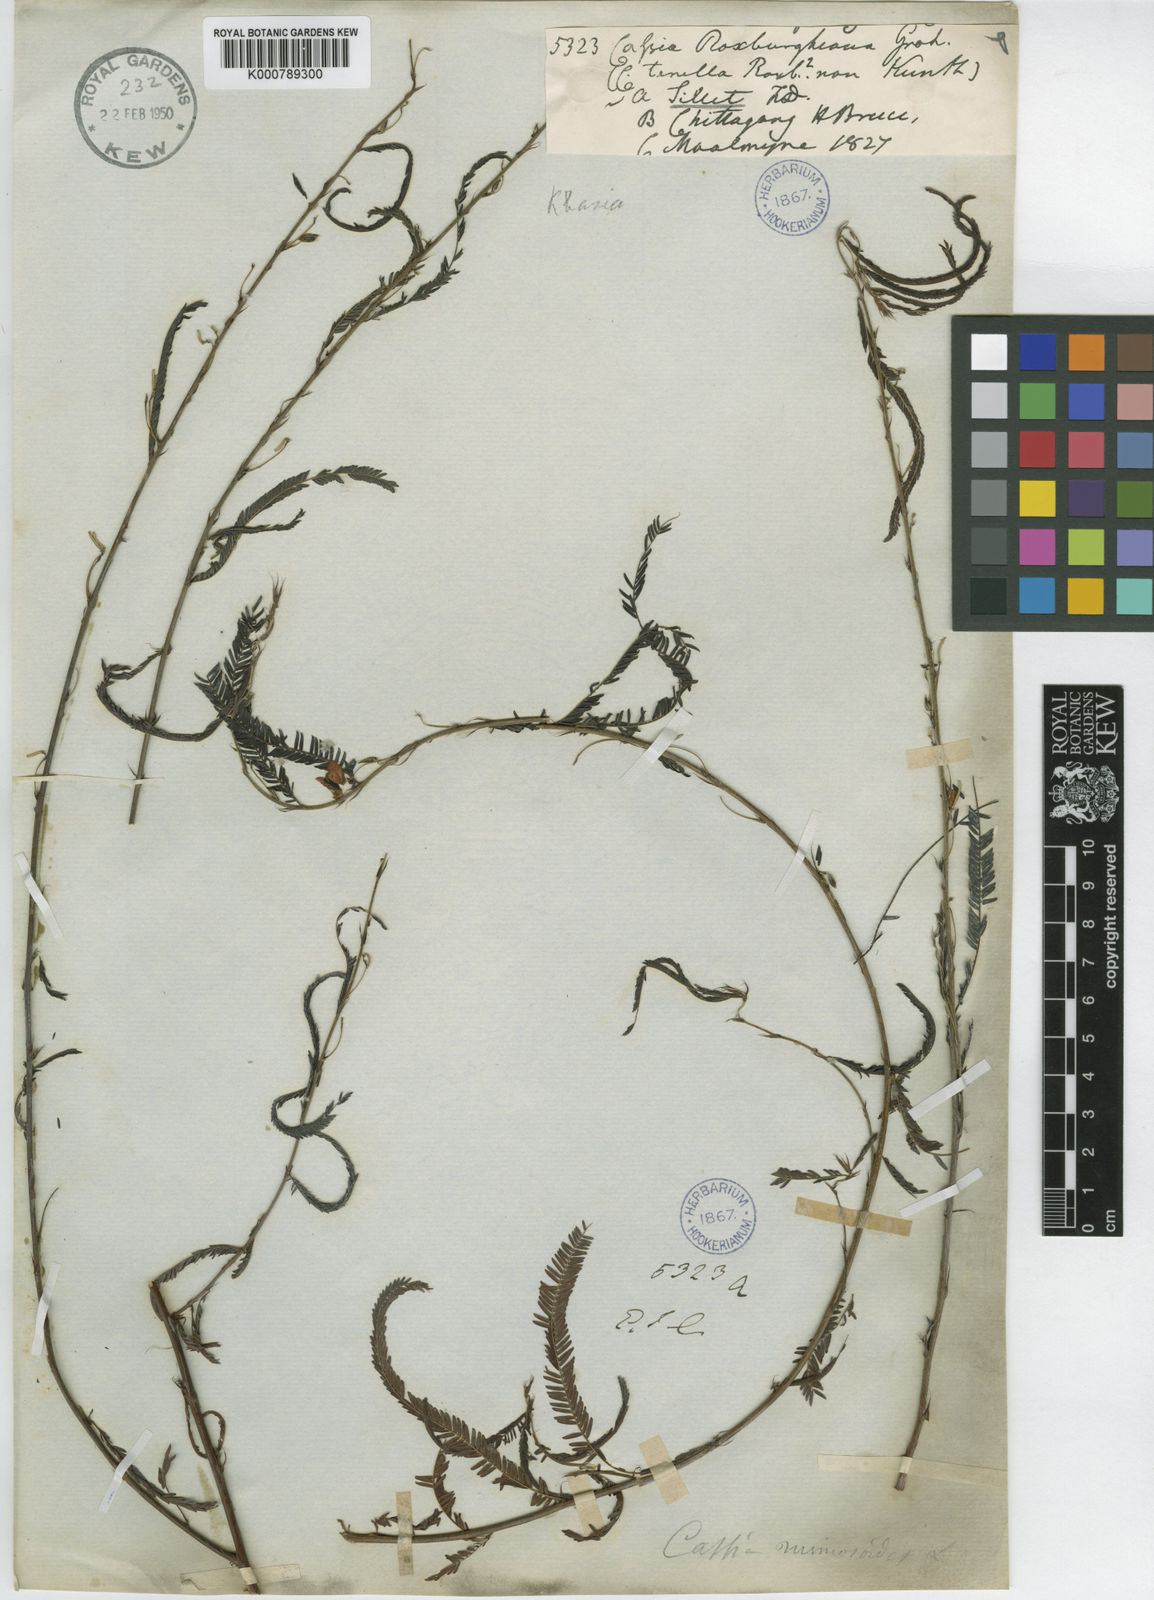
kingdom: Plantae
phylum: Tracheophyta
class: Magnoliopsida
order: Fabales
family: Fabaceae
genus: Chamaecrista
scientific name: Chamaecrista mimosoides
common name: Fish-bone cassia
